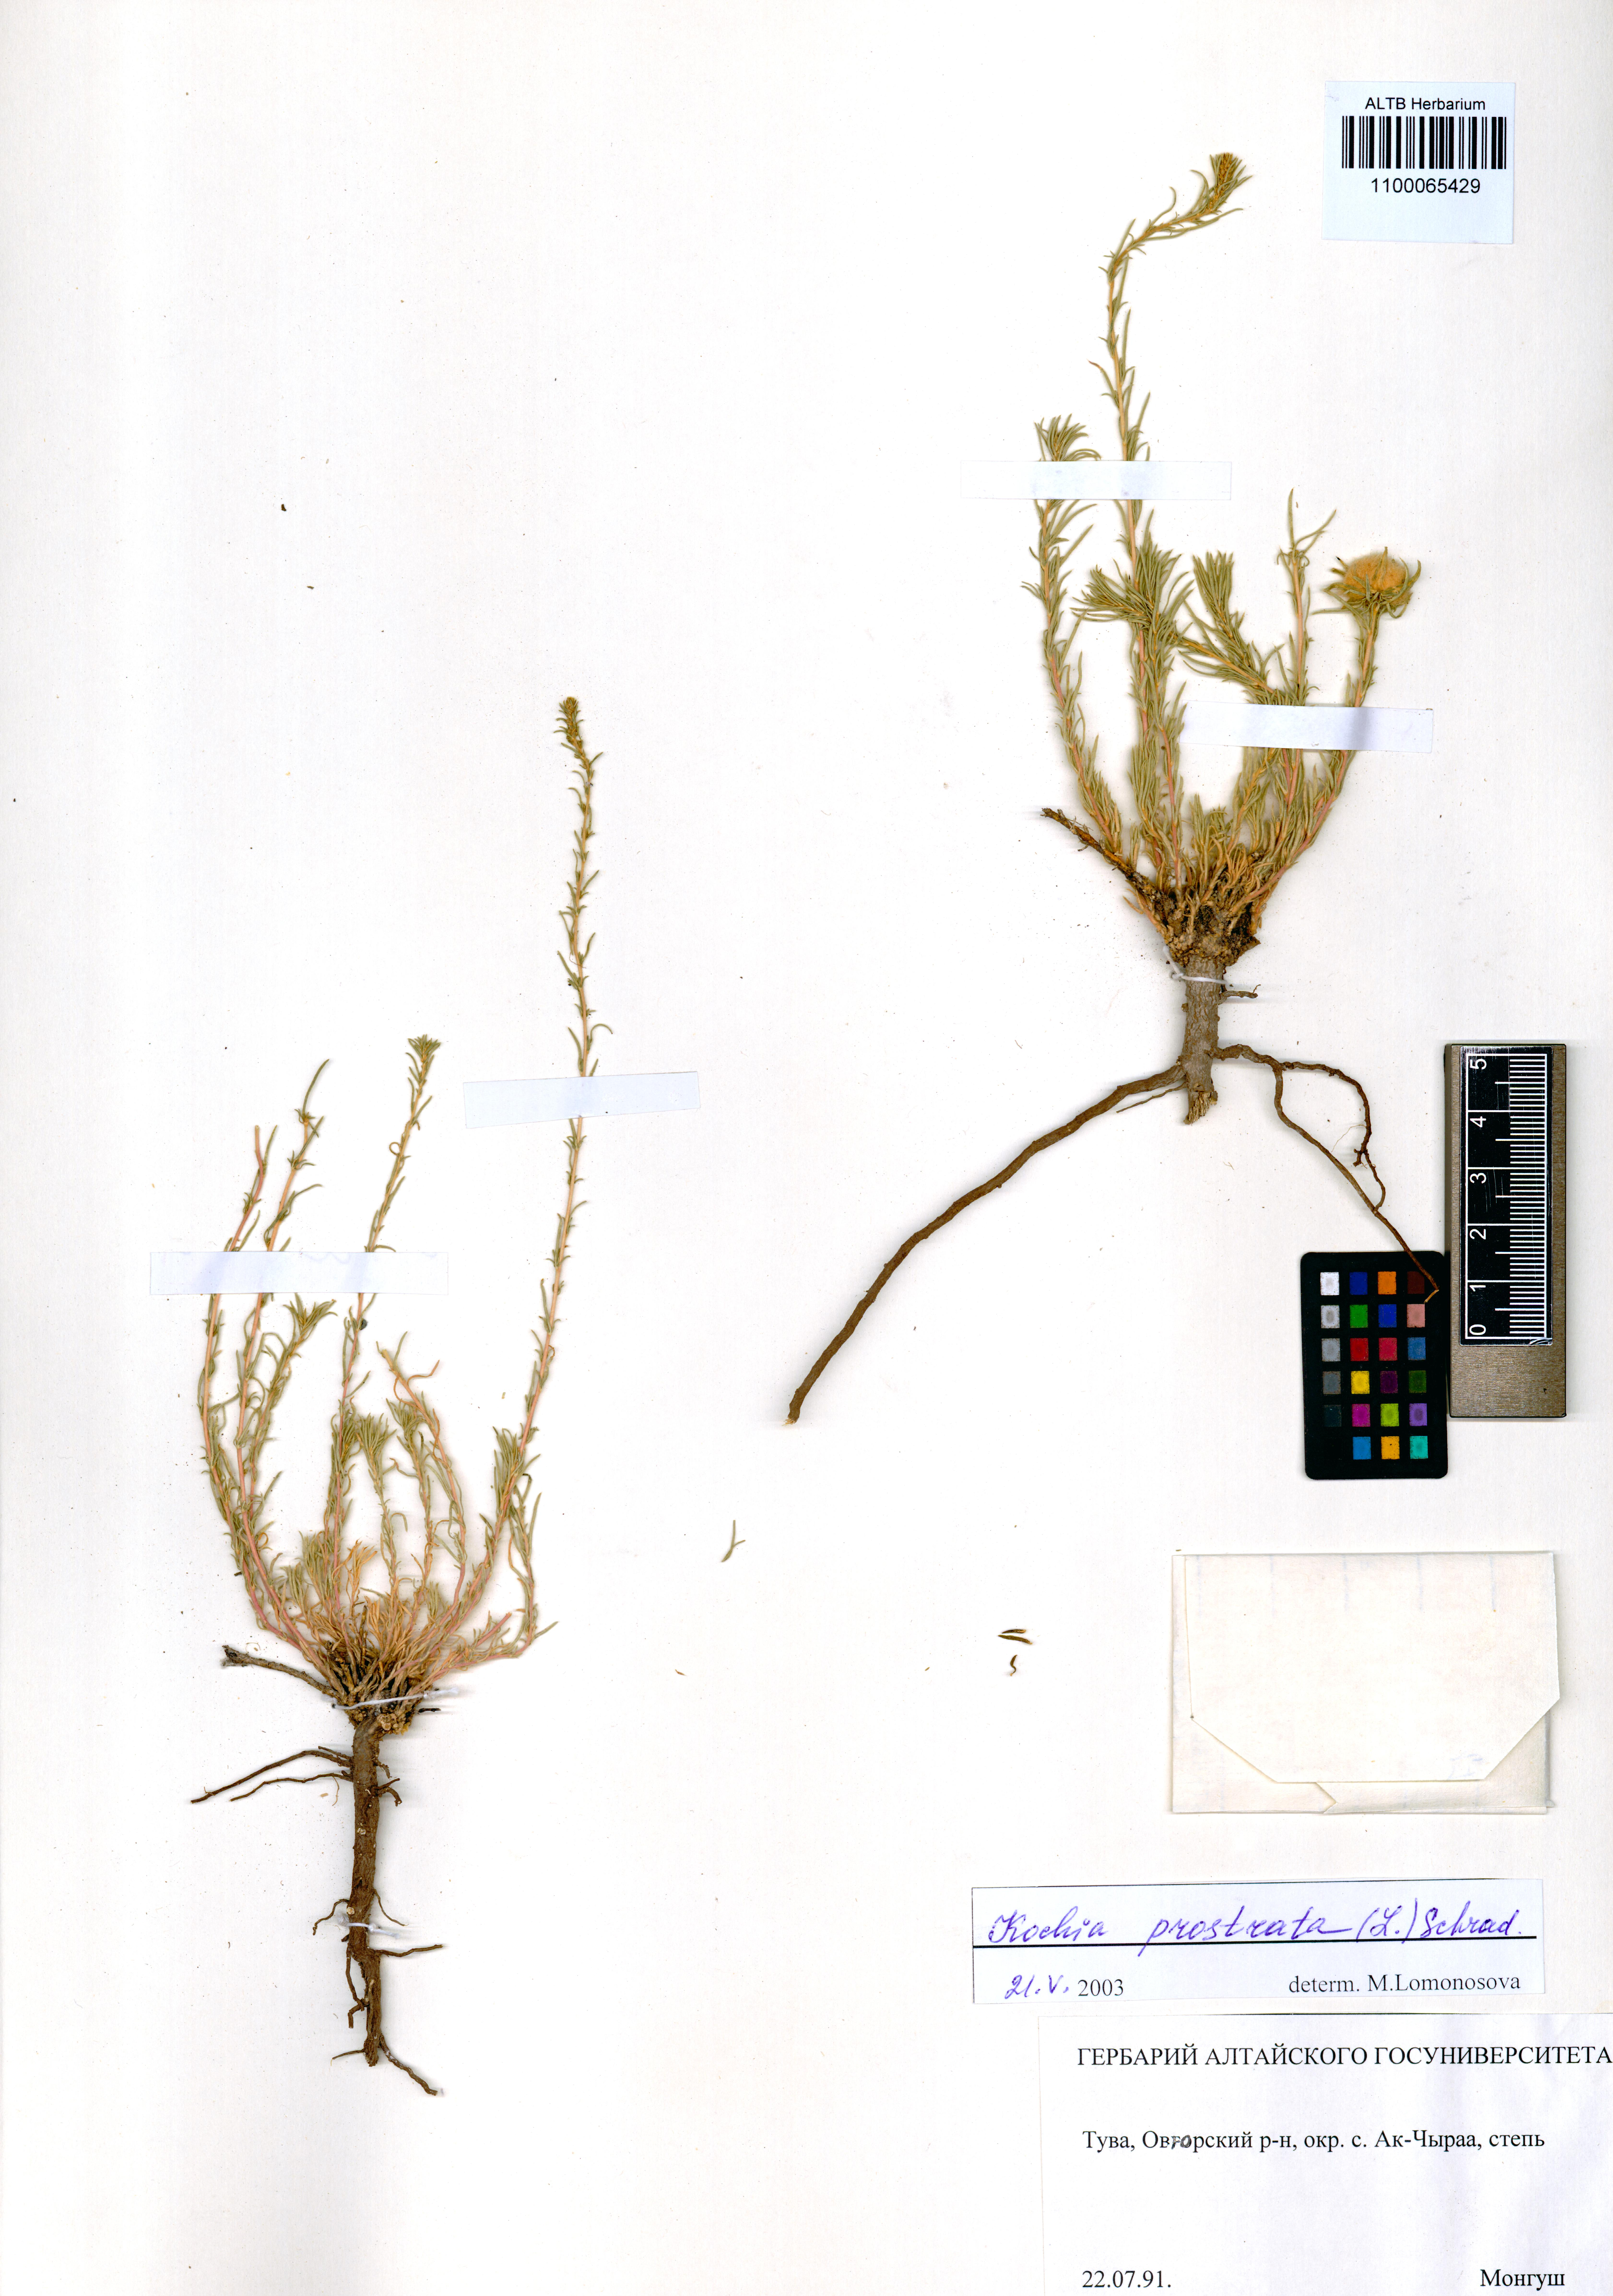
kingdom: Plantae
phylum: Tracheophyta
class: Magnoliopsida
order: Caryophyllales
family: Amaranthaceae
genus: Bassia
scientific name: Bassia prostrata
